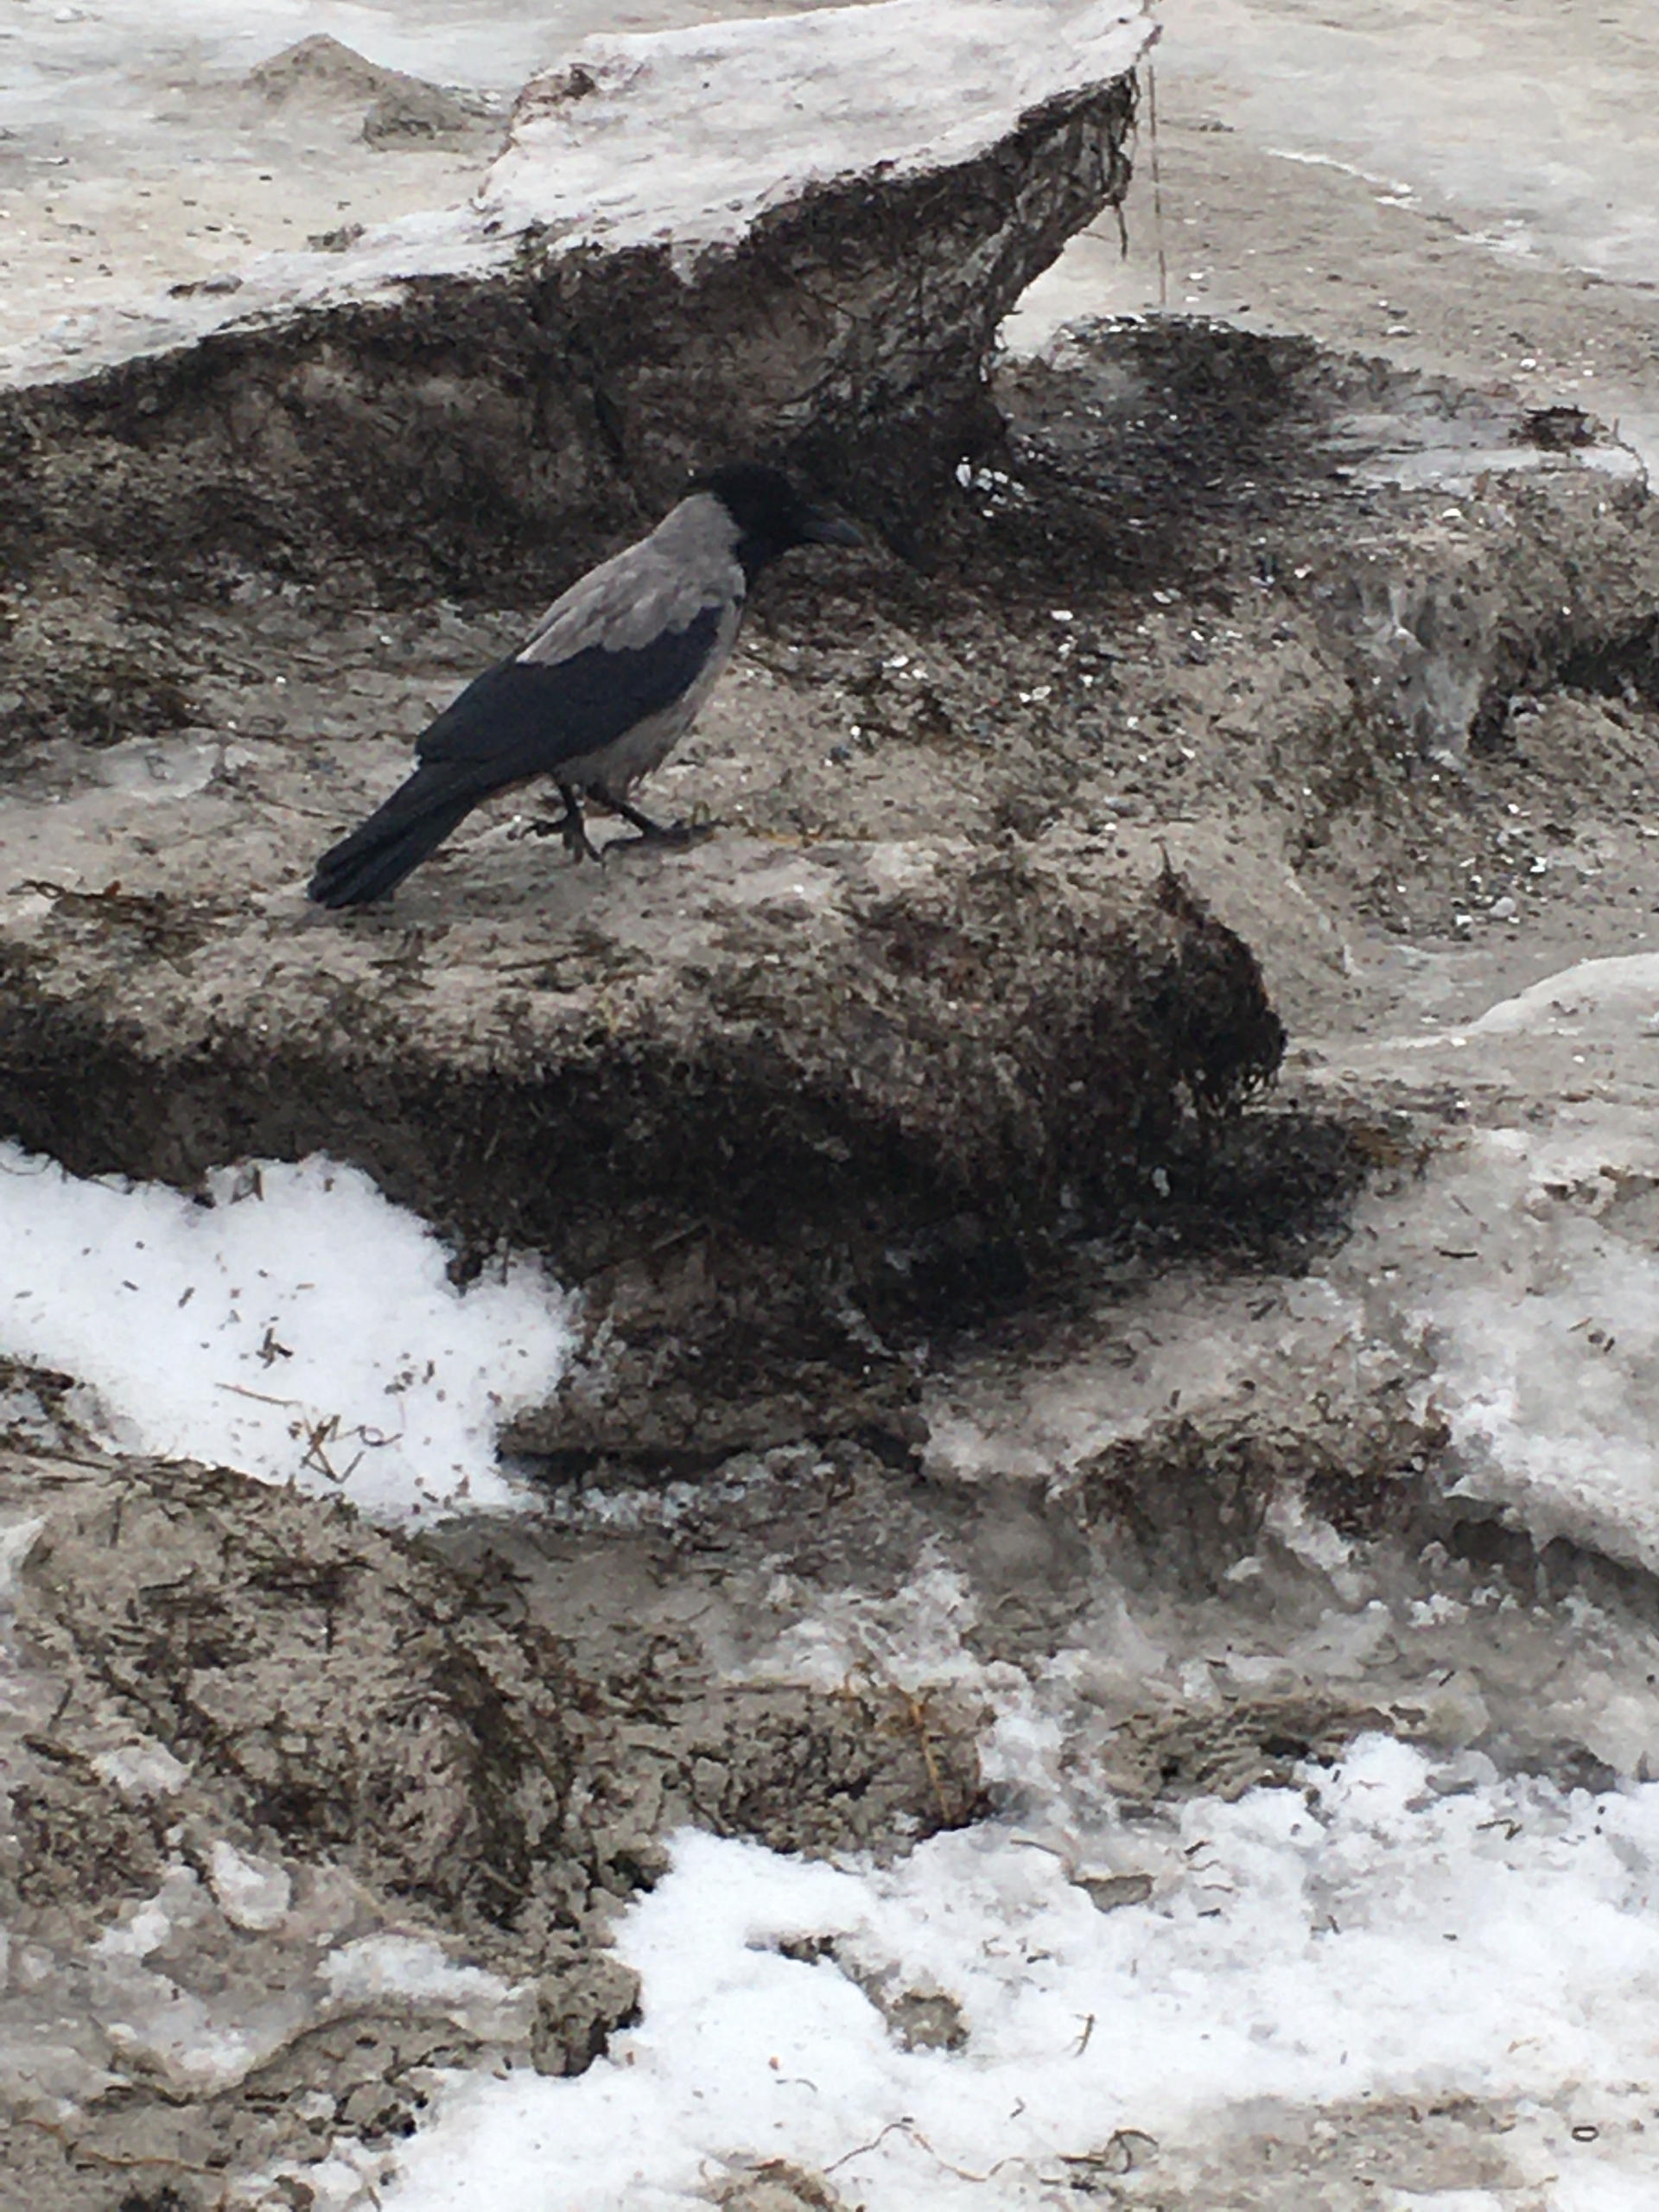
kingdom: Animalia
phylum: Chordata
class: Aves
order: Passeriformes
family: Corvidae
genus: Corvus
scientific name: Corvus cornix
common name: Gråkrage
